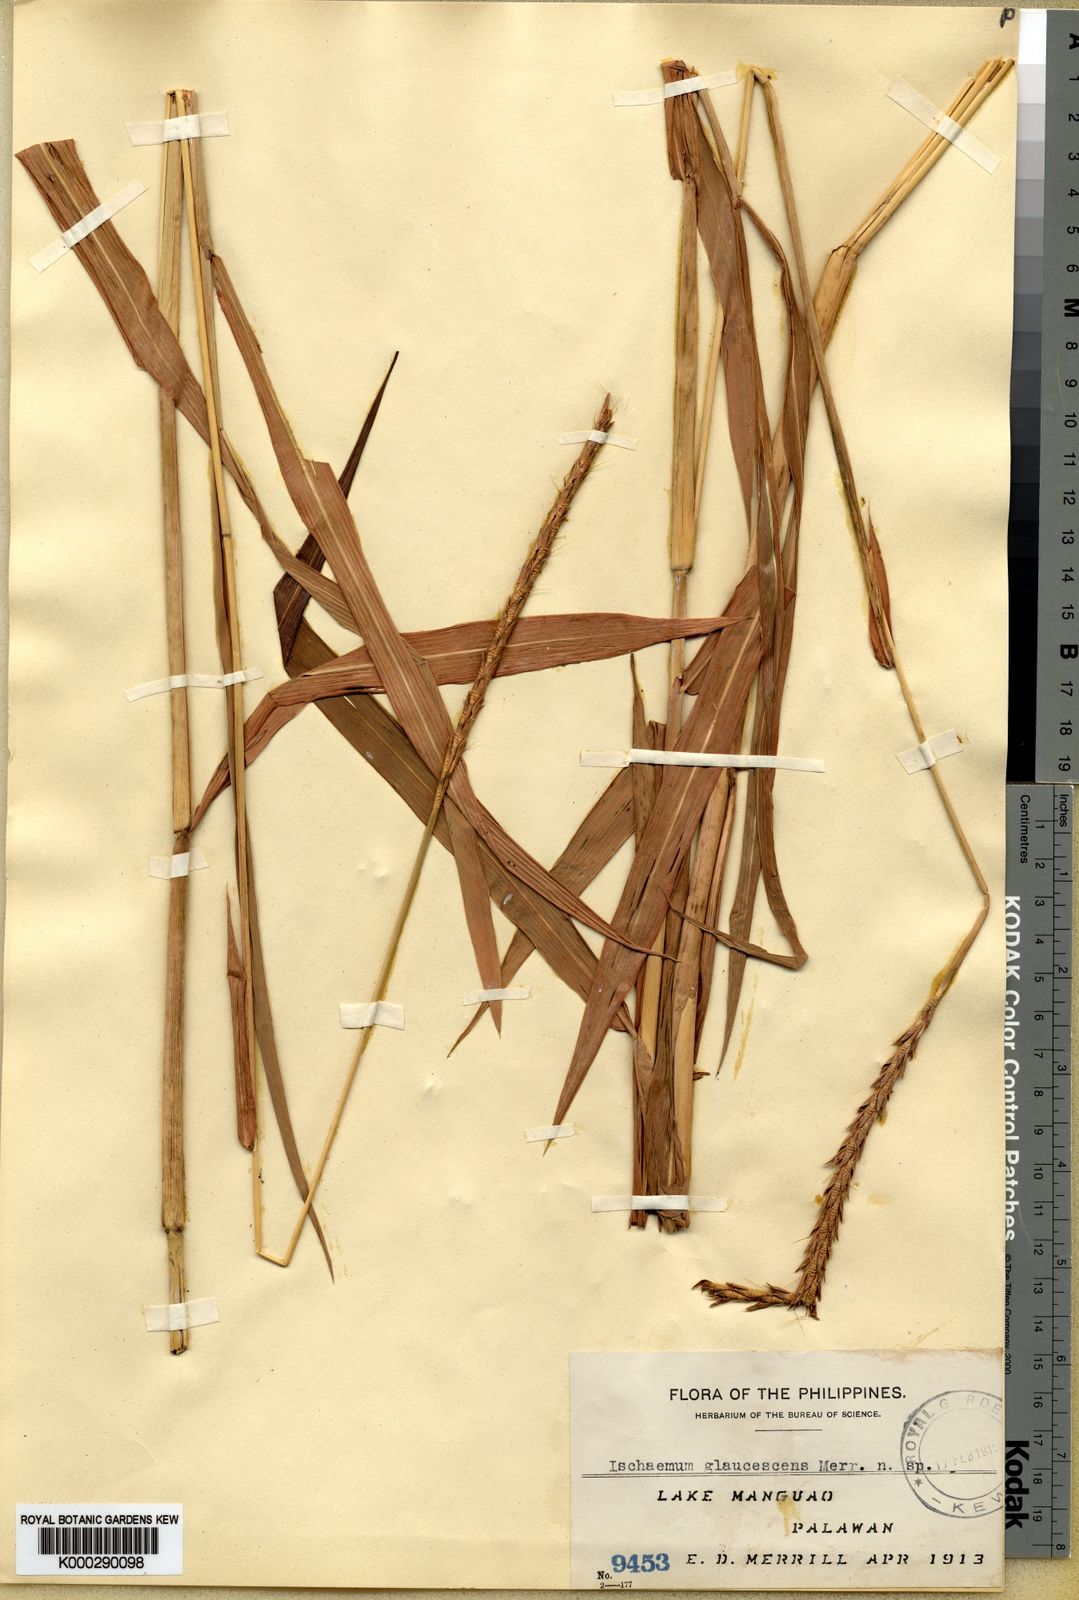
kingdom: Plantae
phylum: Tracheophyta
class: Liliopsida
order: Poales
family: Poaceae
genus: Ischaemum
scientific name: Ischaemum barbatum
